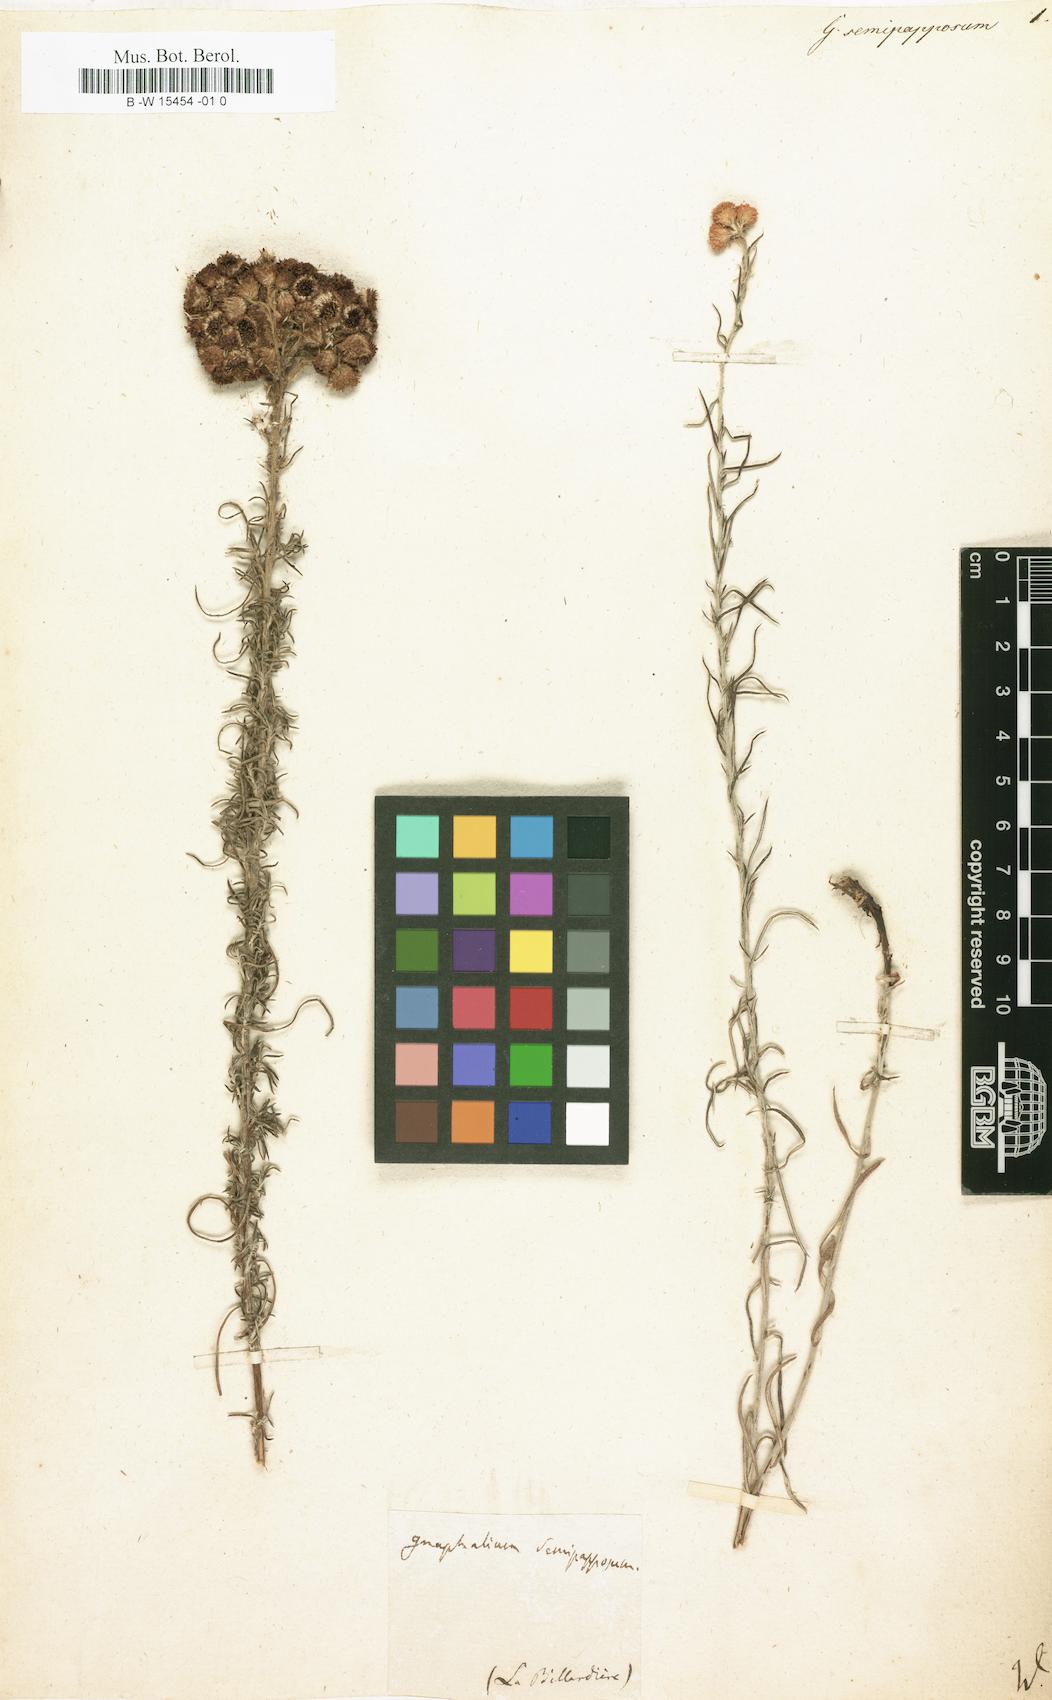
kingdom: Plantae
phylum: Tracheophyta
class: Magnoliopsida
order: Asterales
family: Asteraceae
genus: Chrysocephalum
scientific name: Chrysocephalum semipapposum
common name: Clustered everlasting
